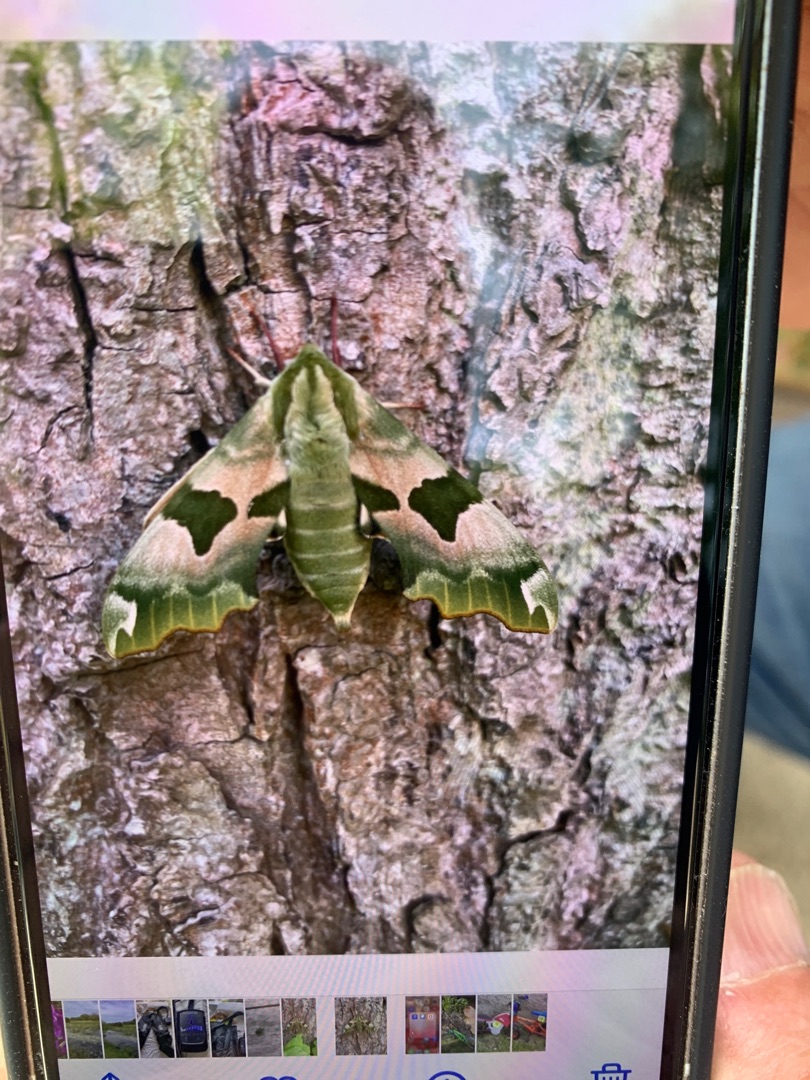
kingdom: Animalia
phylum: Arthropoda
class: Insecta
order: Lepidoptera
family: Sphingidae
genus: Mimas
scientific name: Mimas tiliae
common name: Lindesværmer
